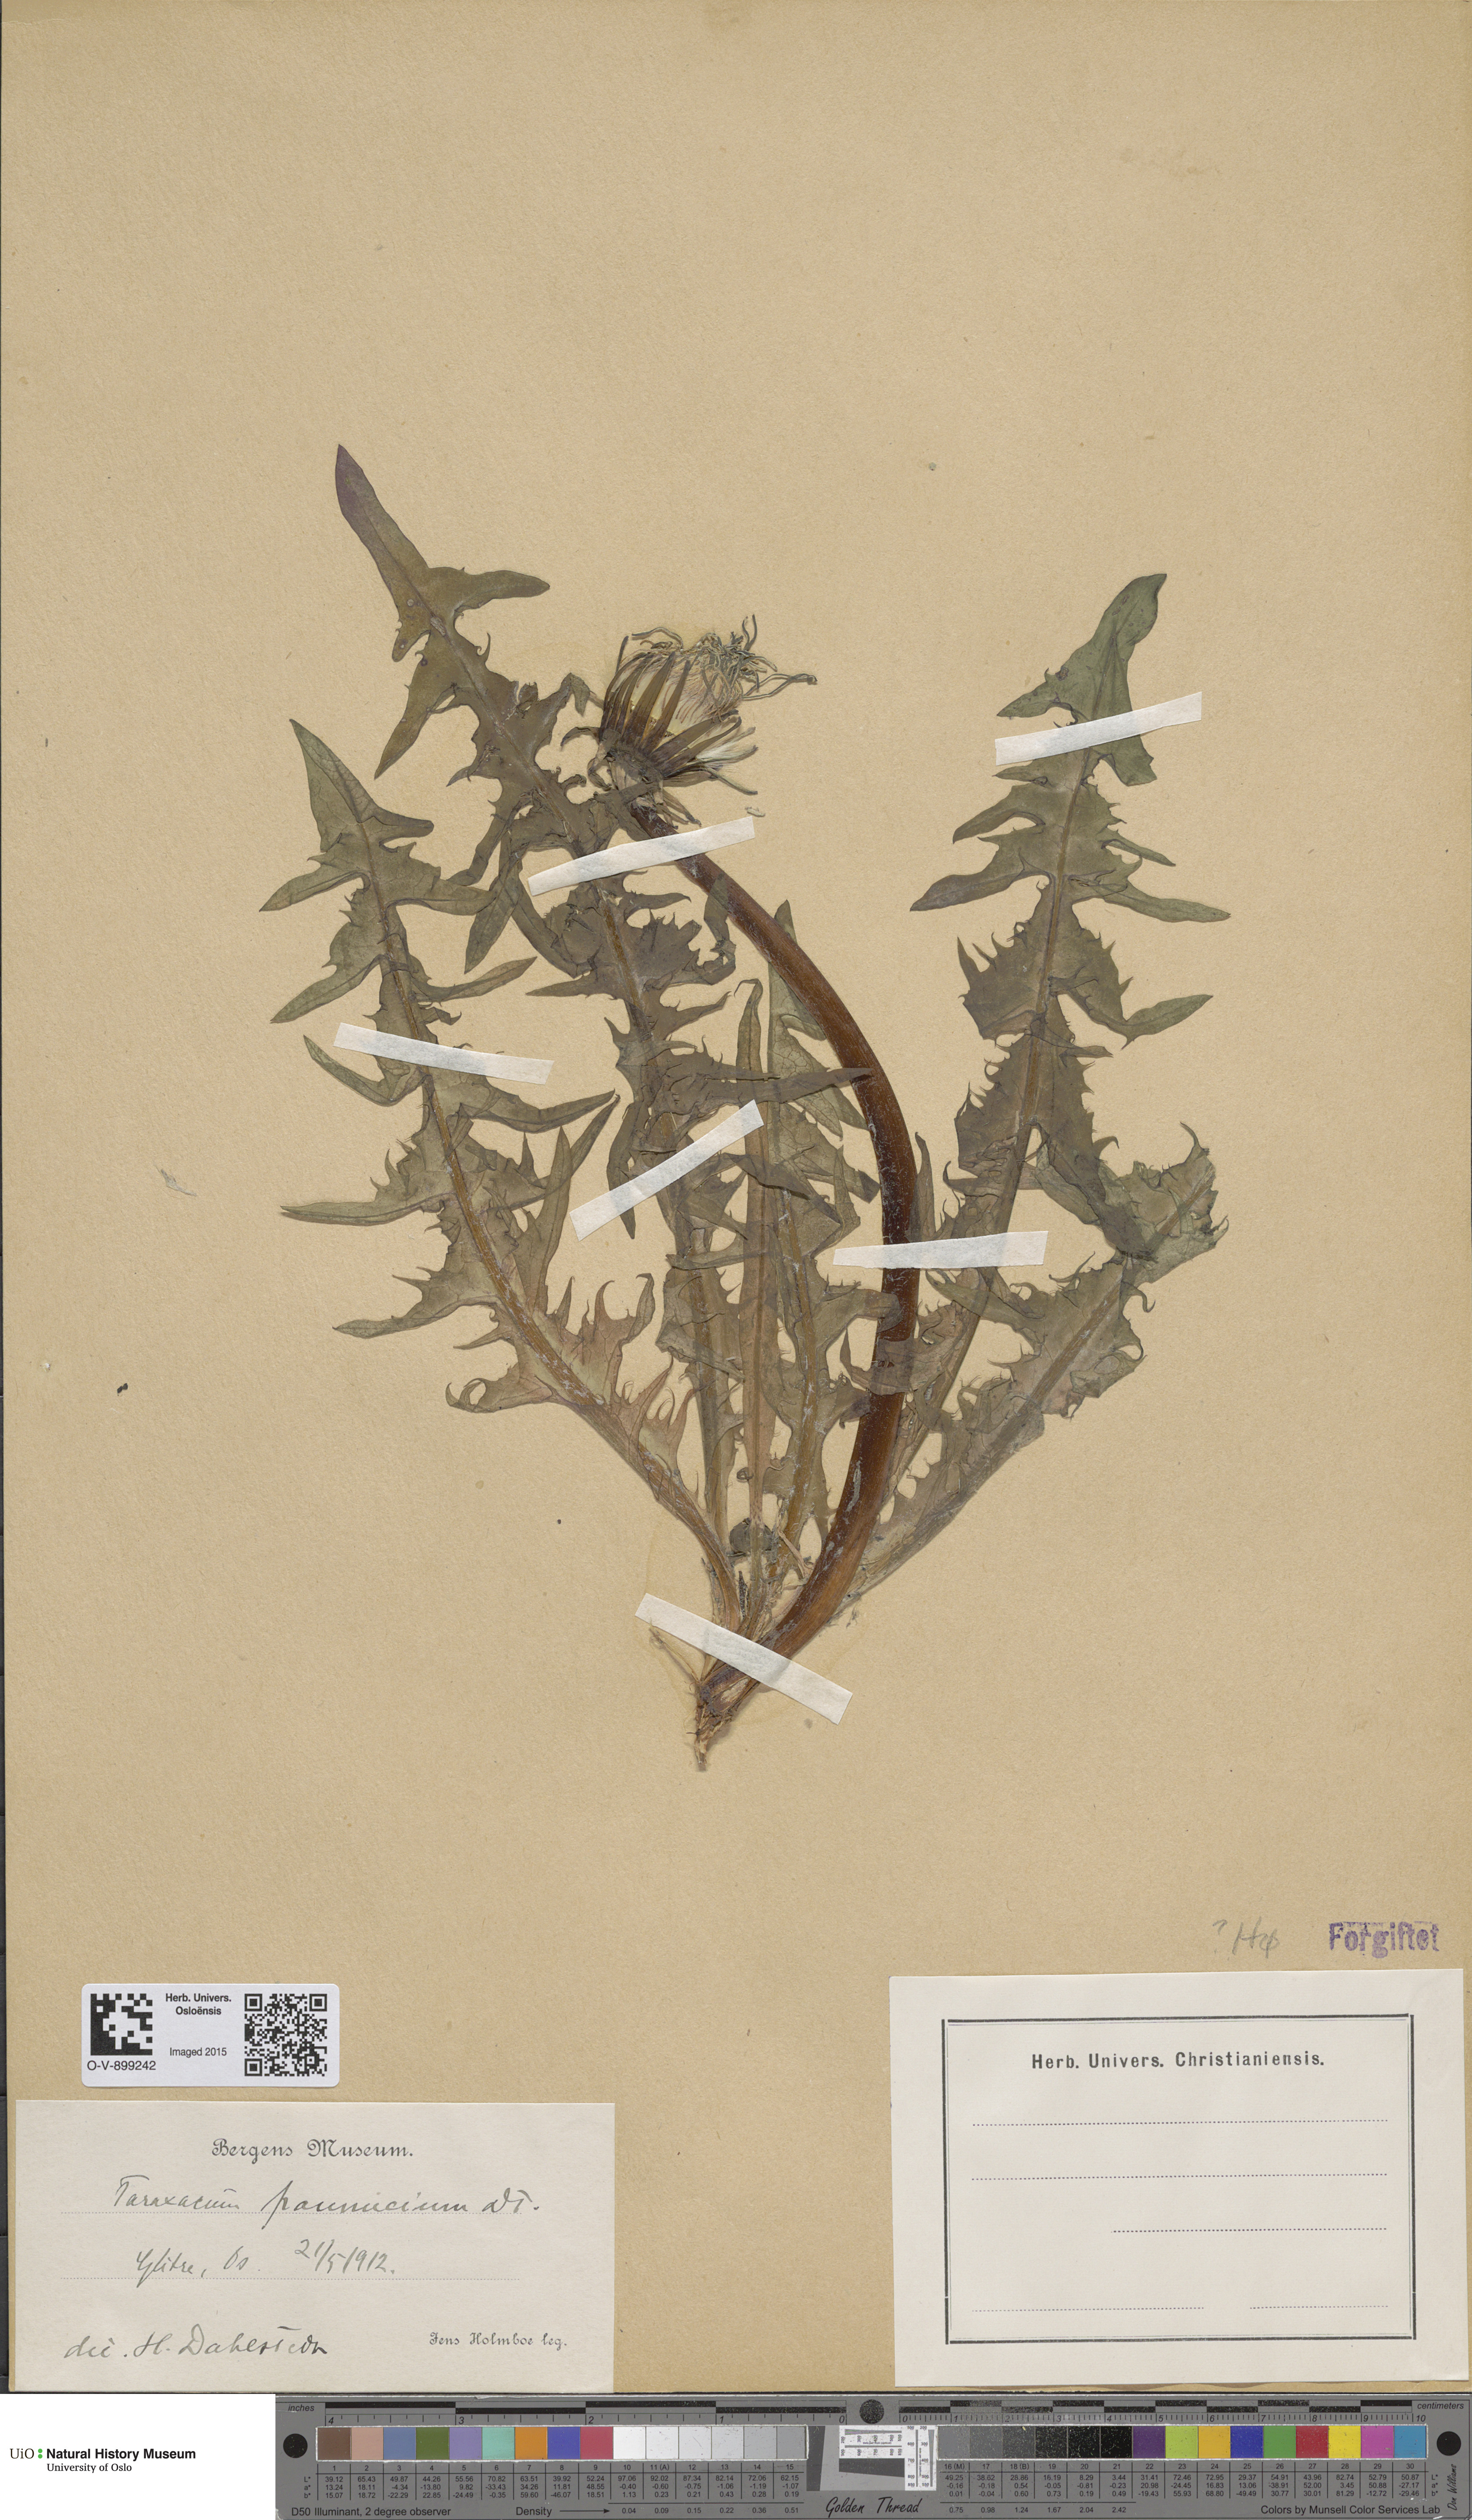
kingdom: Plantae
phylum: Tracheophyta
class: Magnoliopsida
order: Asterales
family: Asteraceae
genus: Taraxacum
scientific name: Taraxacum pannucium
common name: Green-stalked dandelion
